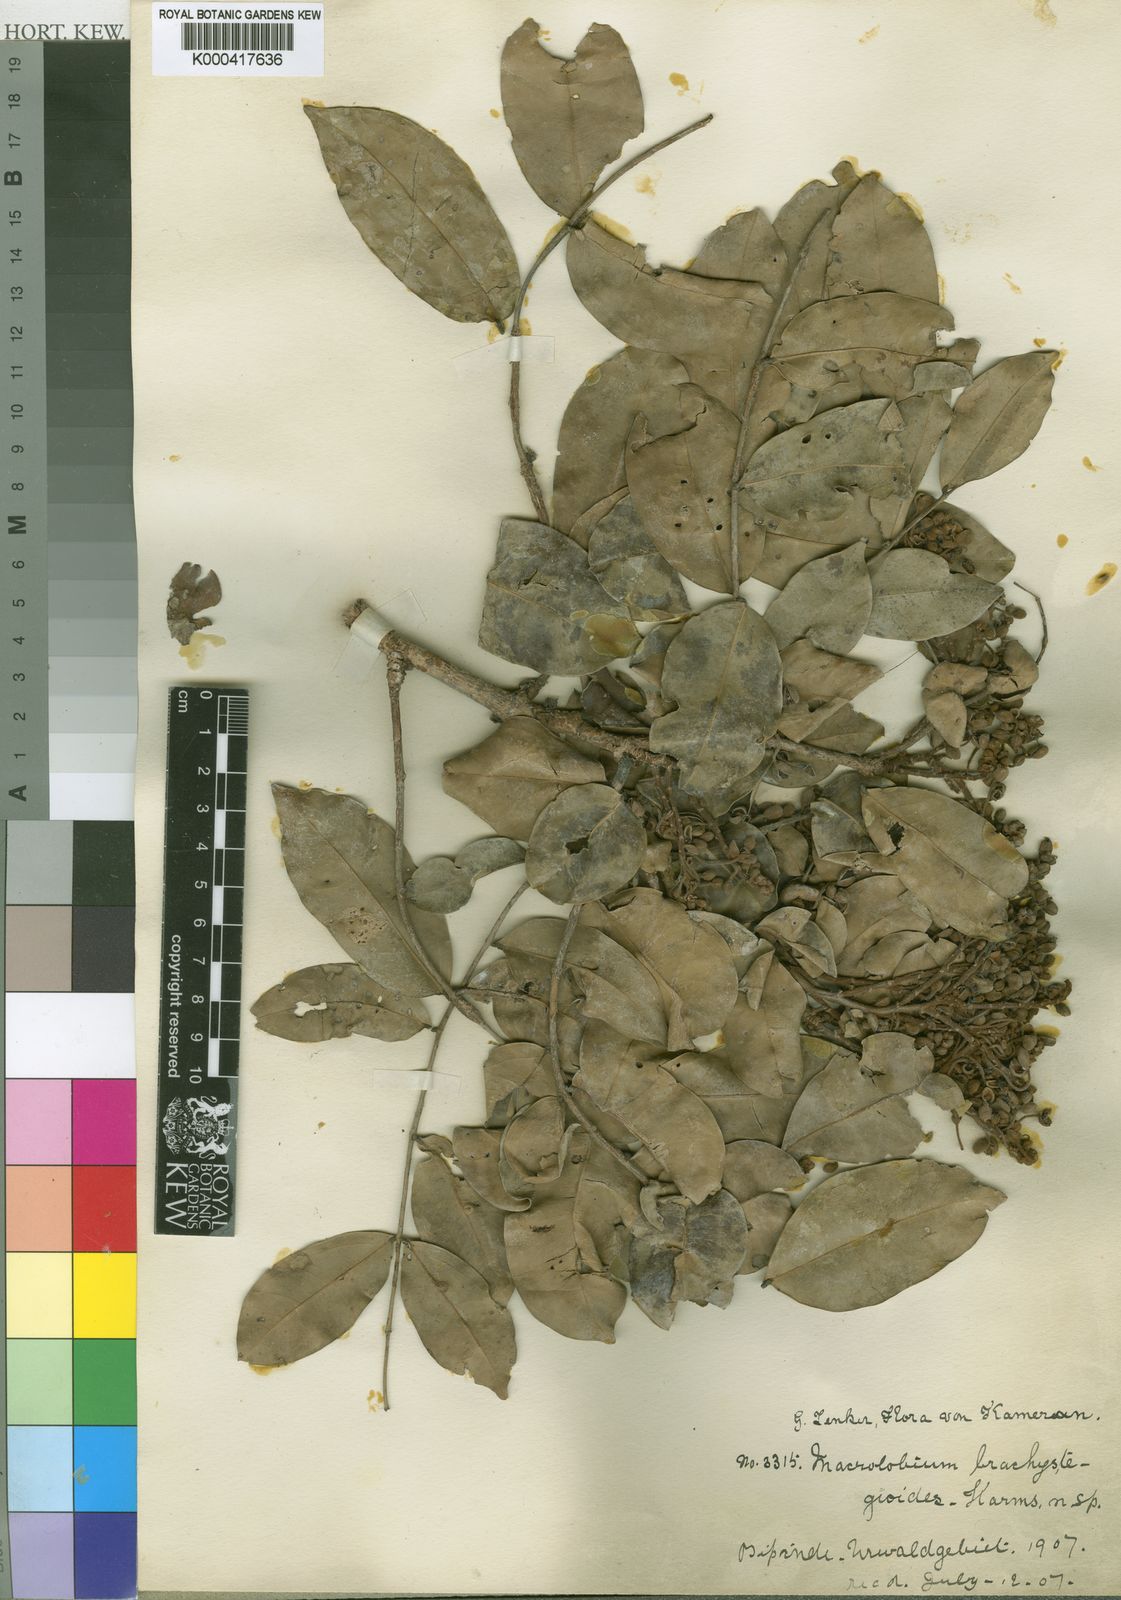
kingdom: Plantae
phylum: Tracheophyta
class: Magnoliopsida
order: Fabales
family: Fabaceae
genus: Gilbertiodendron
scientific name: Gilbertiodendron
